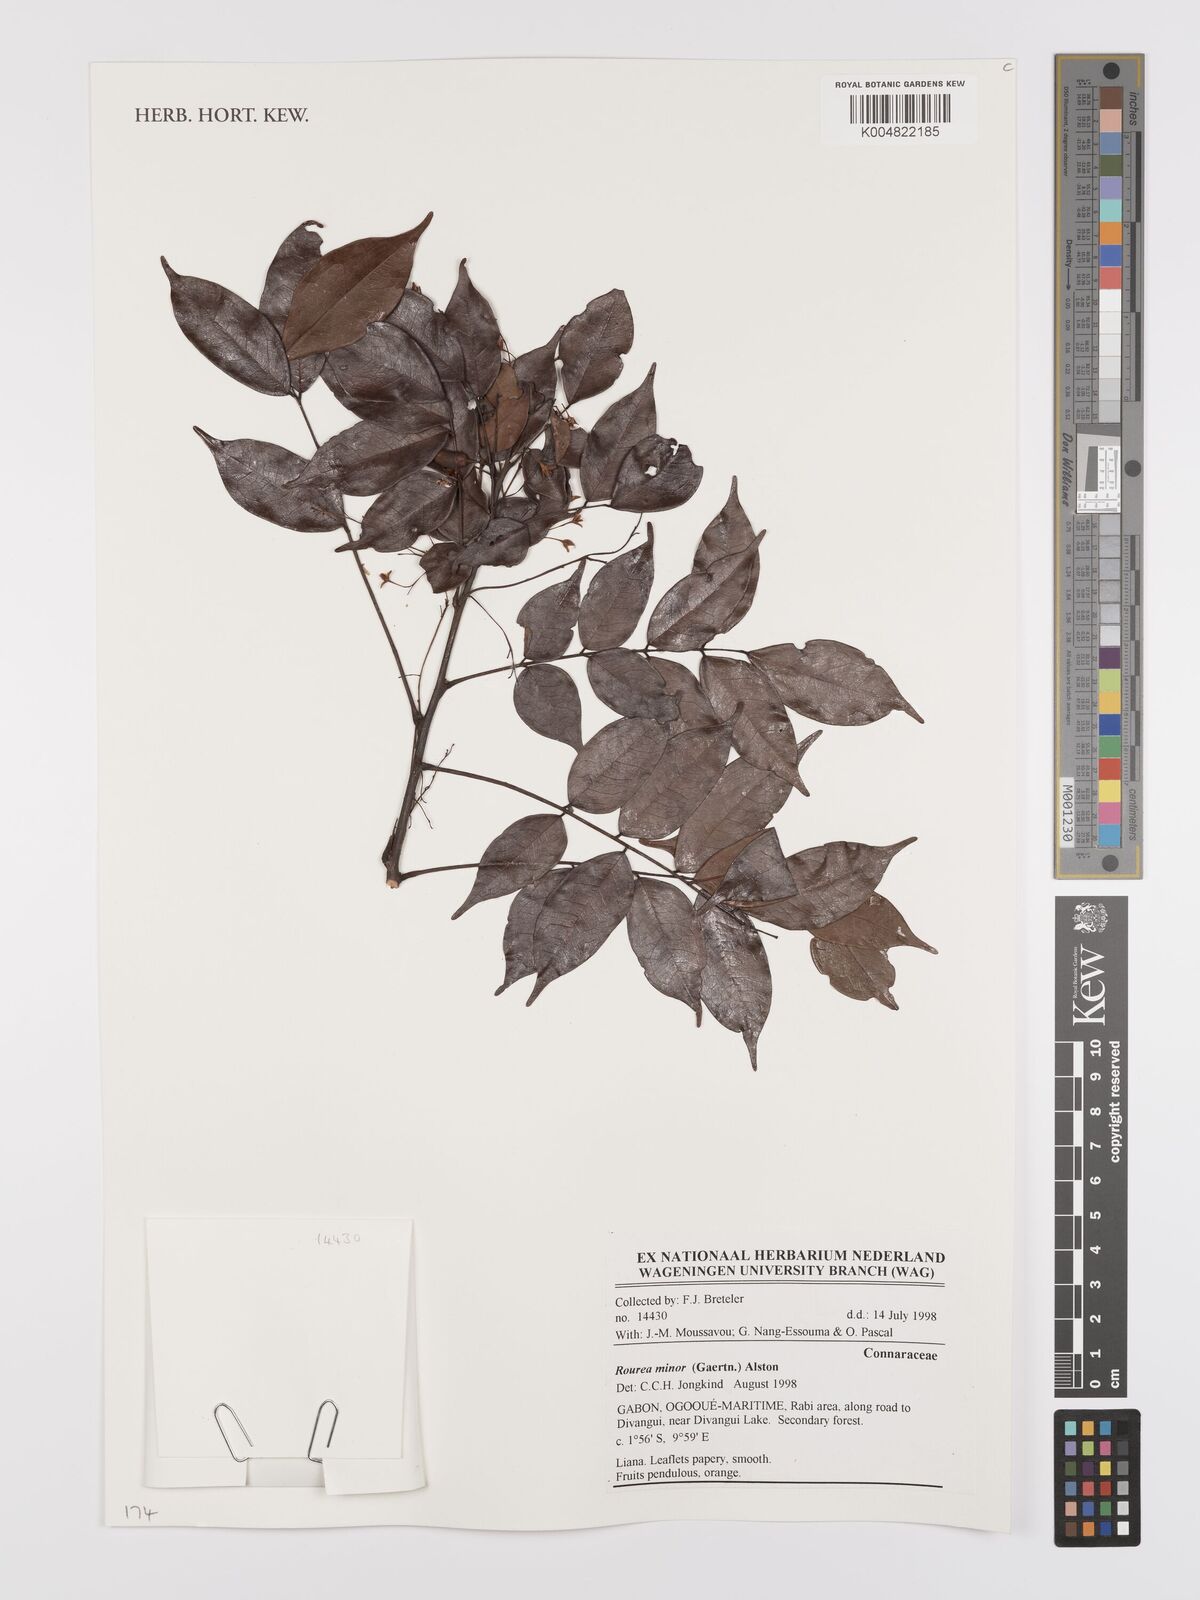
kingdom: Plantae
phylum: Tracheophyta
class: Magnoliopsida
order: Oxalidales
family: Connaraceae
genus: Rourea
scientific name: Rourea minor
